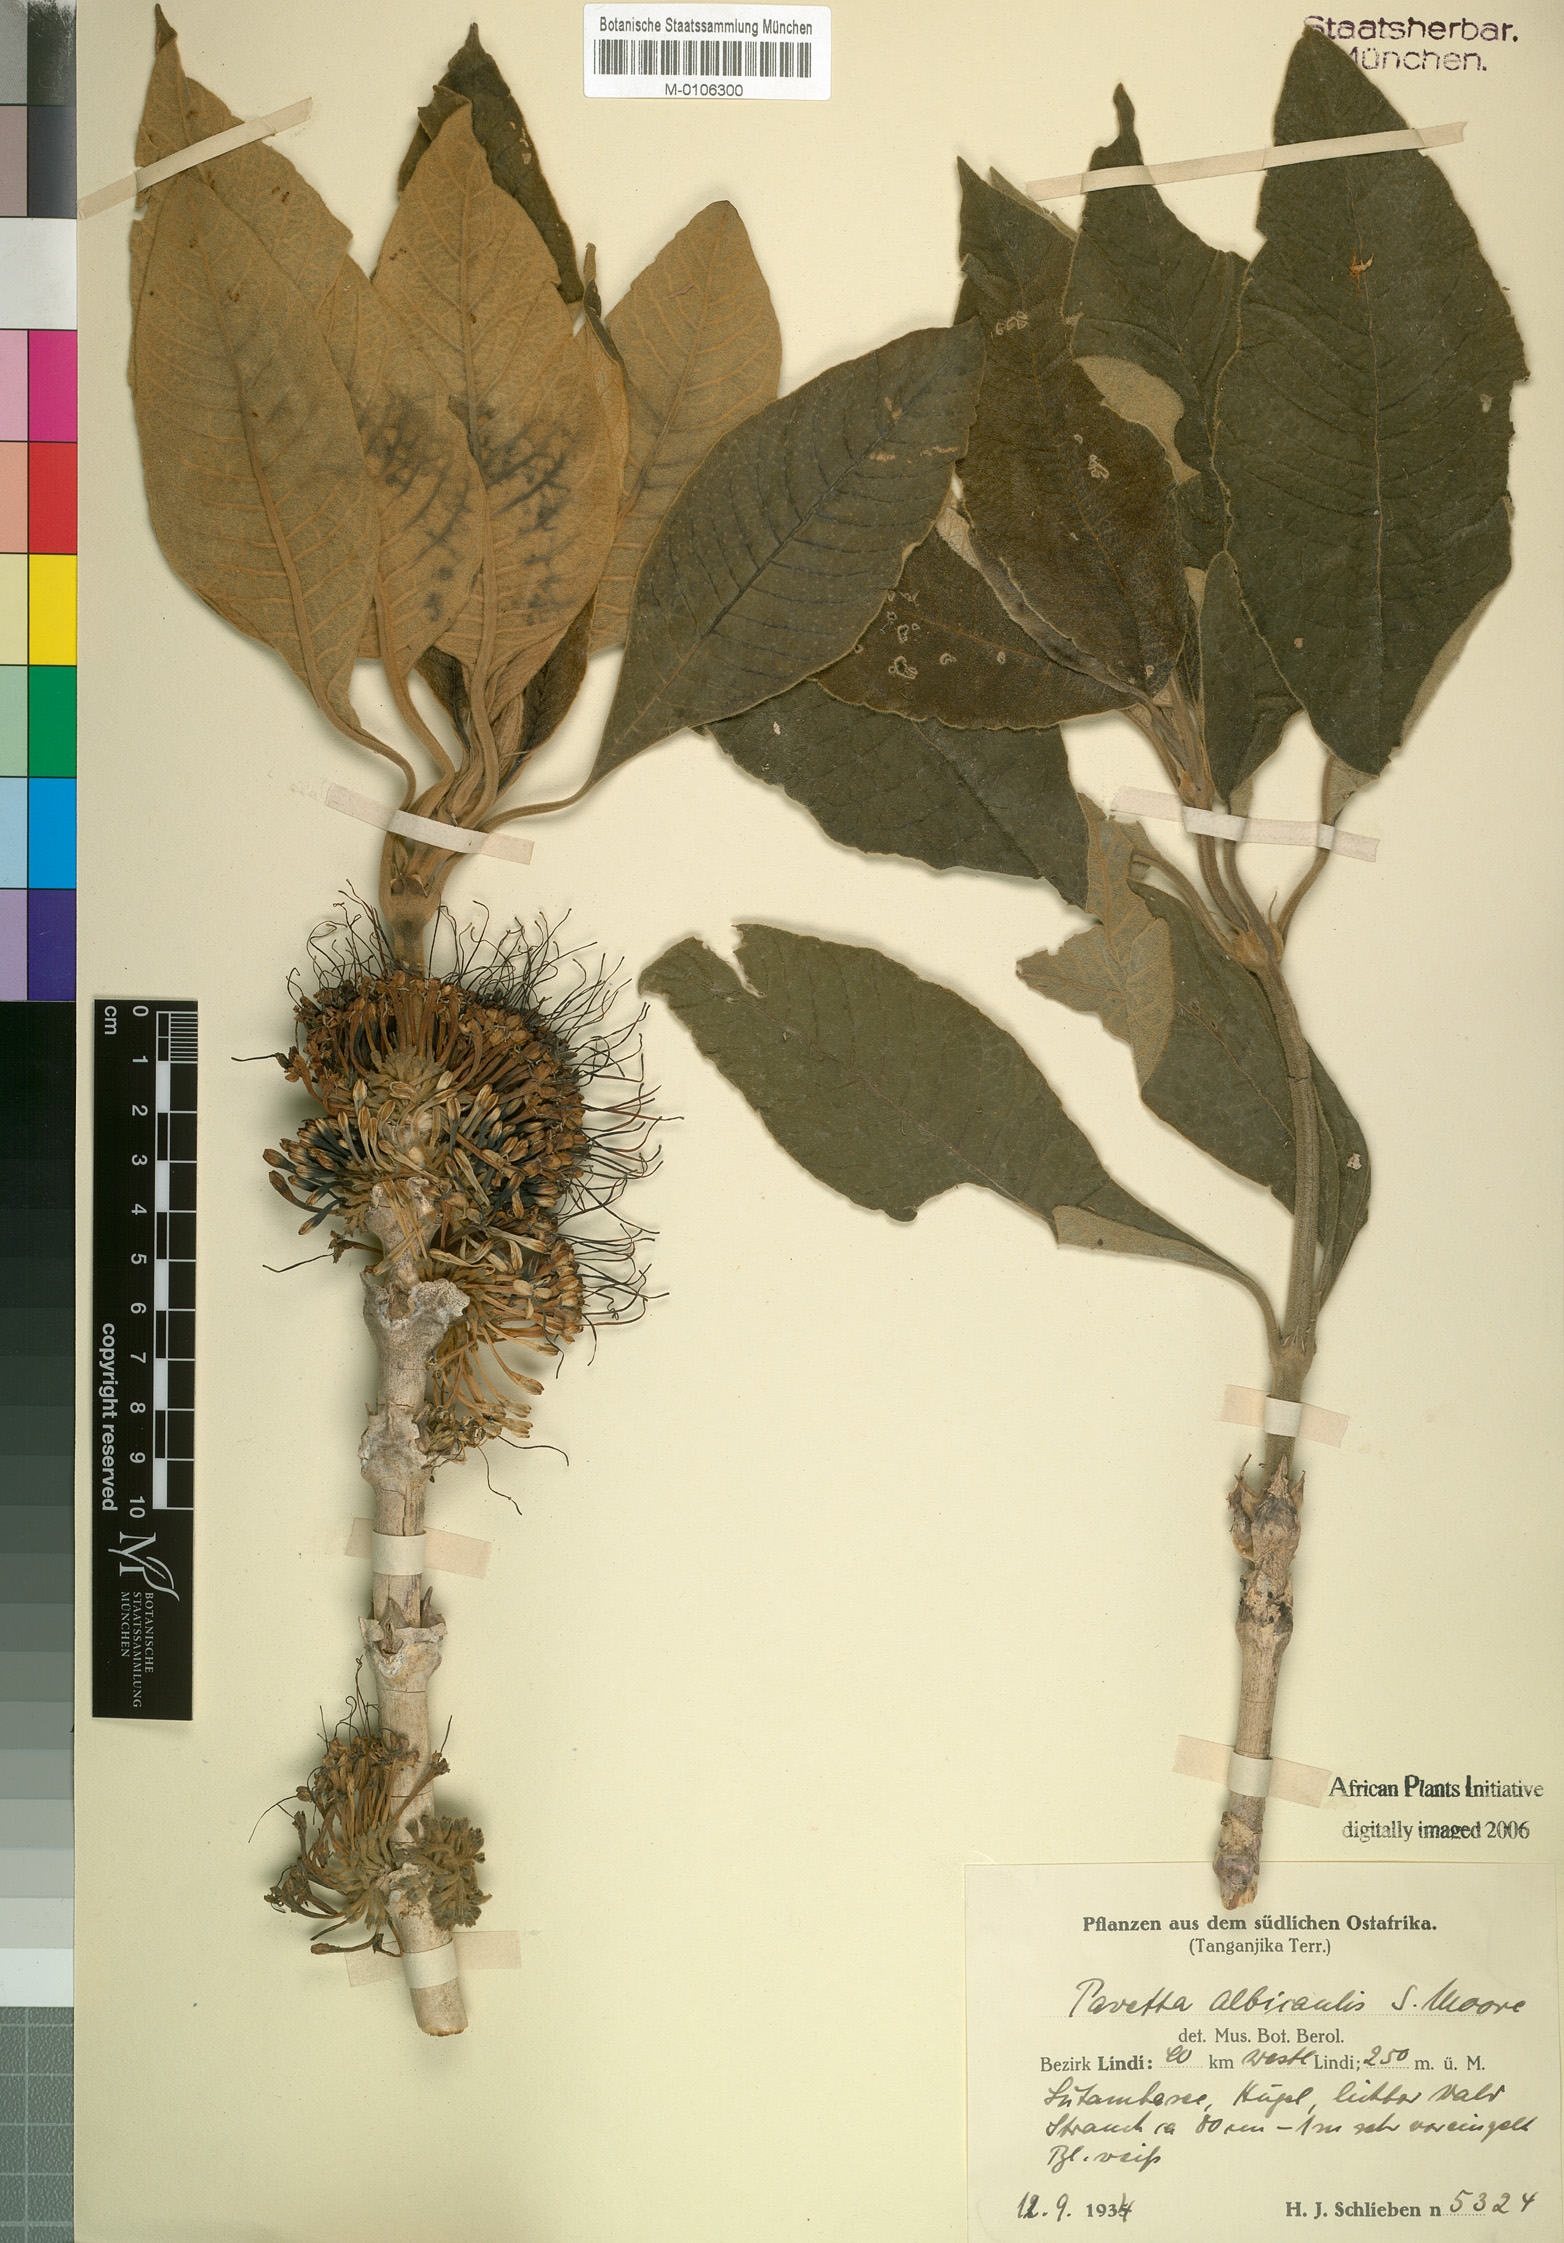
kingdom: Plantae
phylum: Tracheophyta
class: Magnoliopsida
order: Gentianales
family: Rubiaceae
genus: Pavetta
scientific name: Pavetta pseudoalbicaulis
